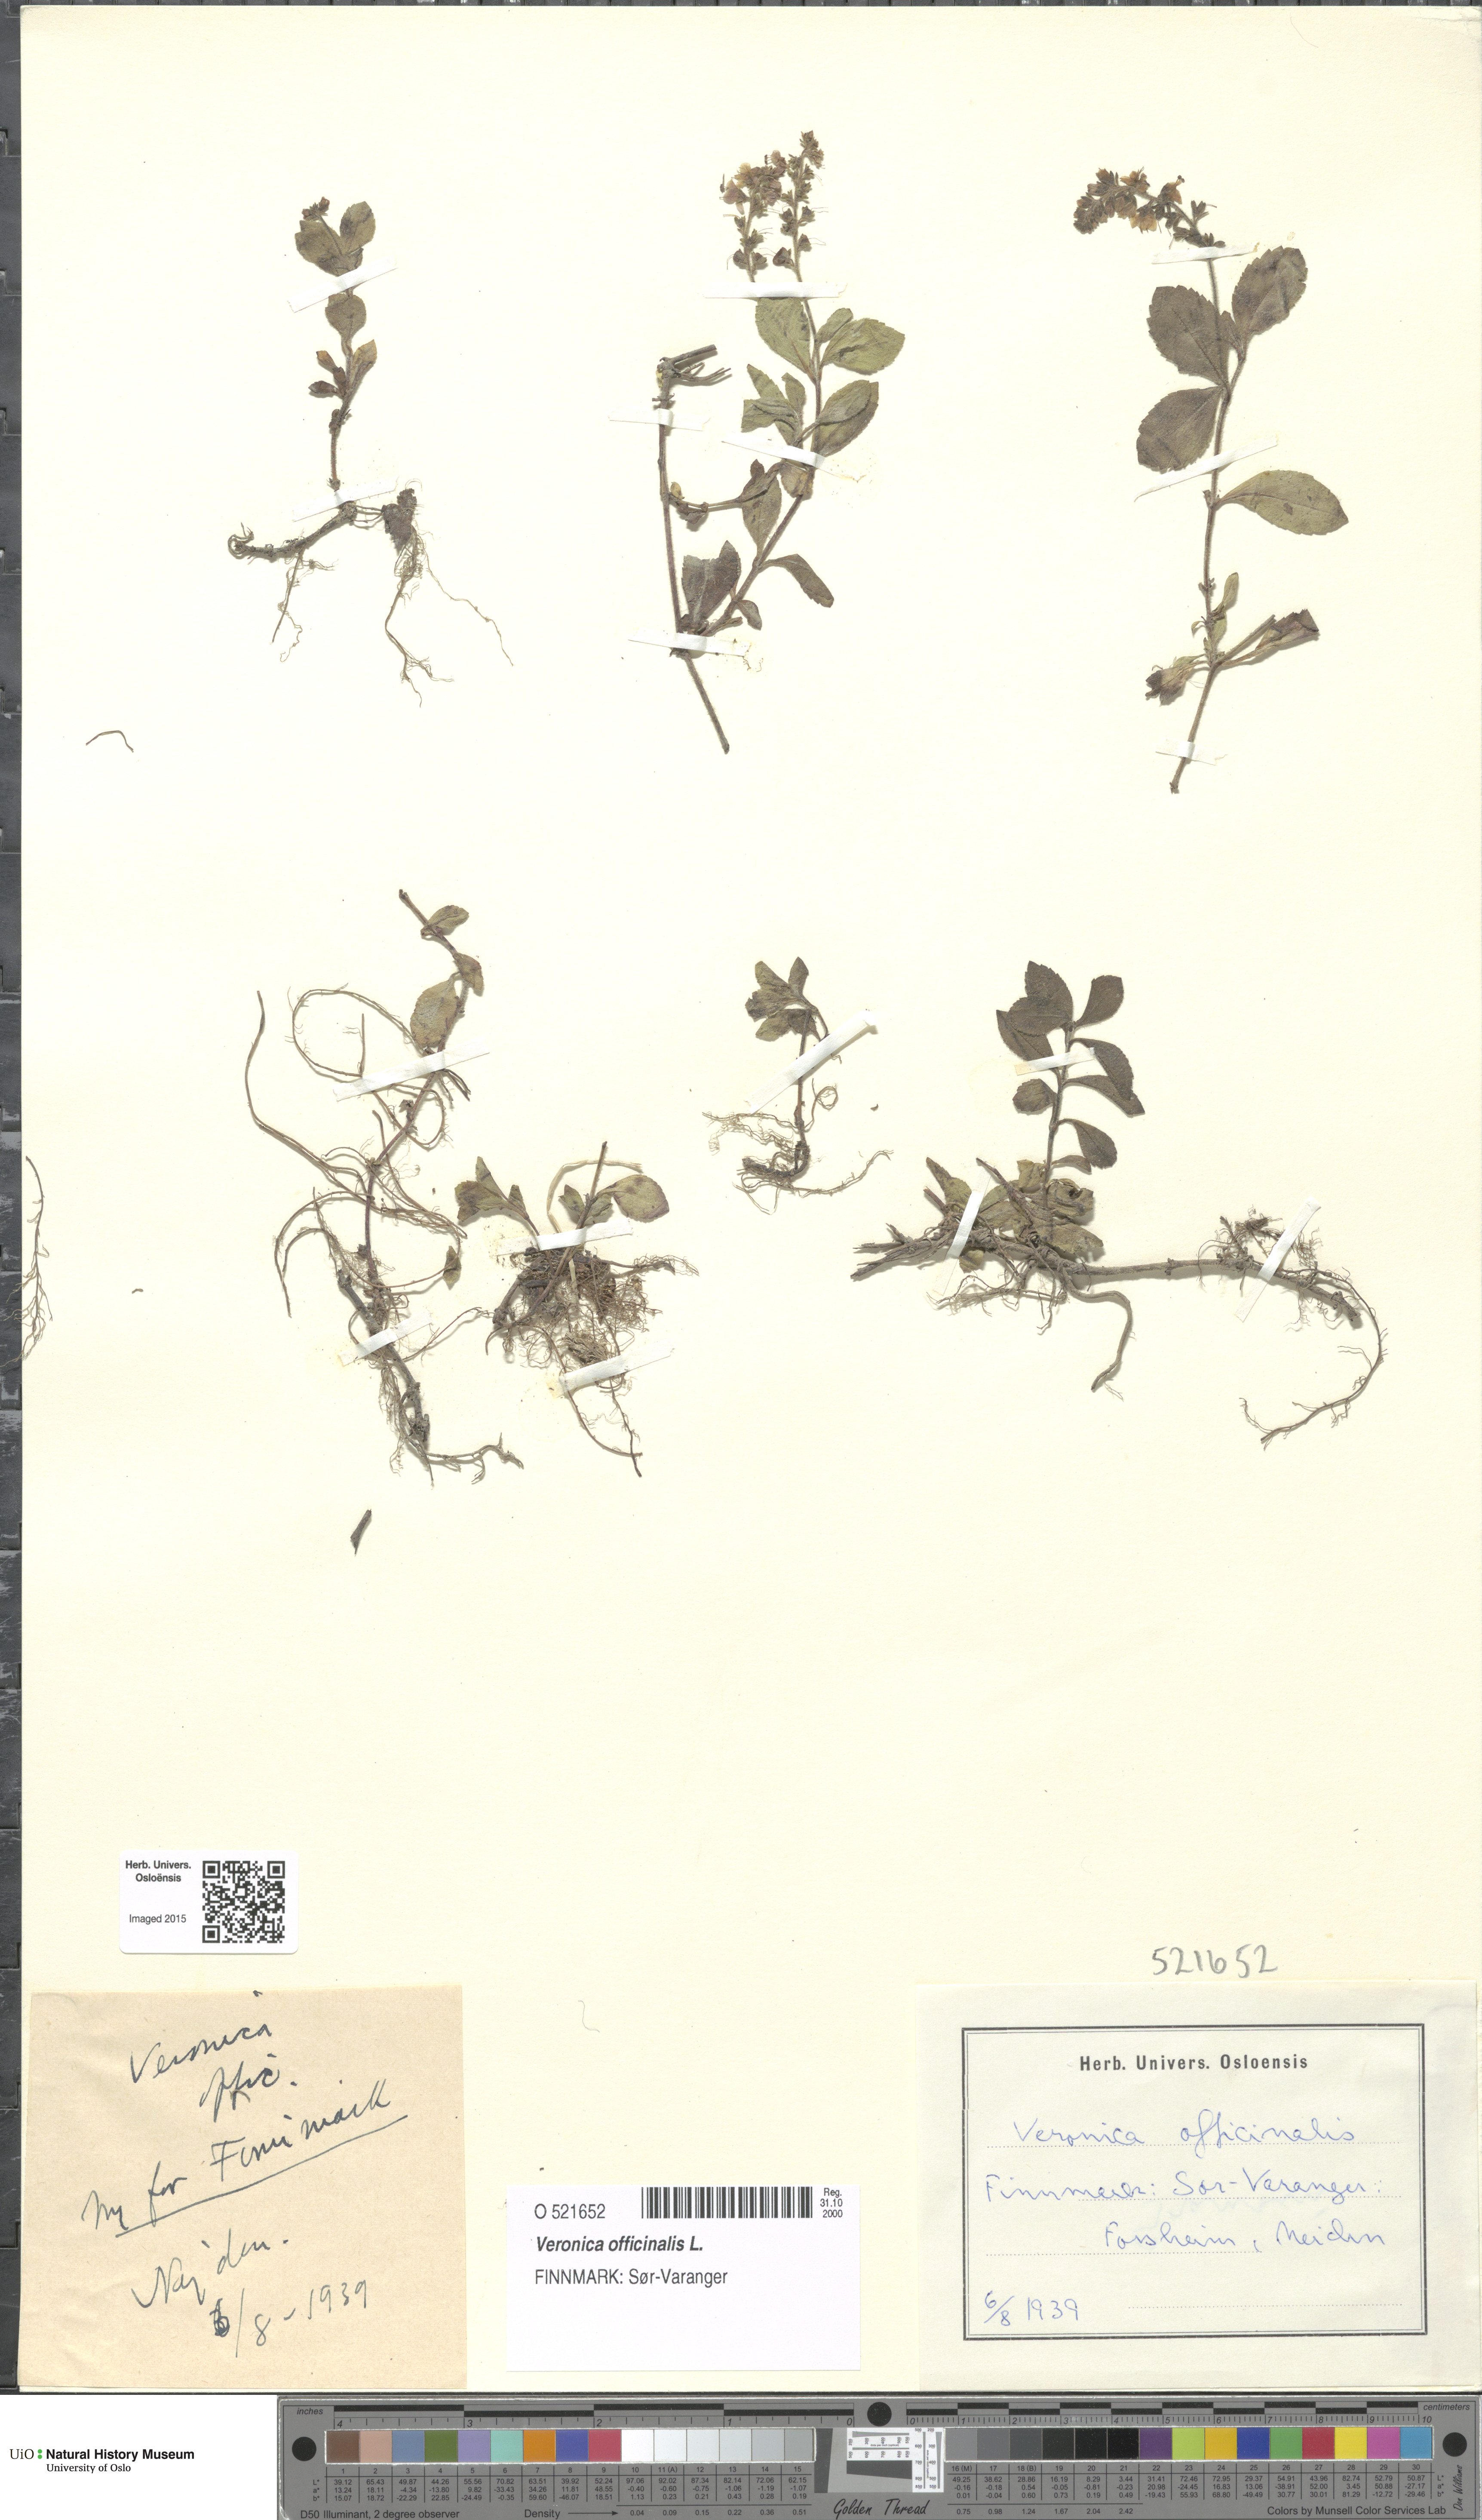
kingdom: Plantae
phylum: Tracheophyta
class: Magnoliopsida
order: Lamiales
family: Plantaginaceae
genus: Veronica
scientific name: Veronica officinalis
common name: Common speedwell
